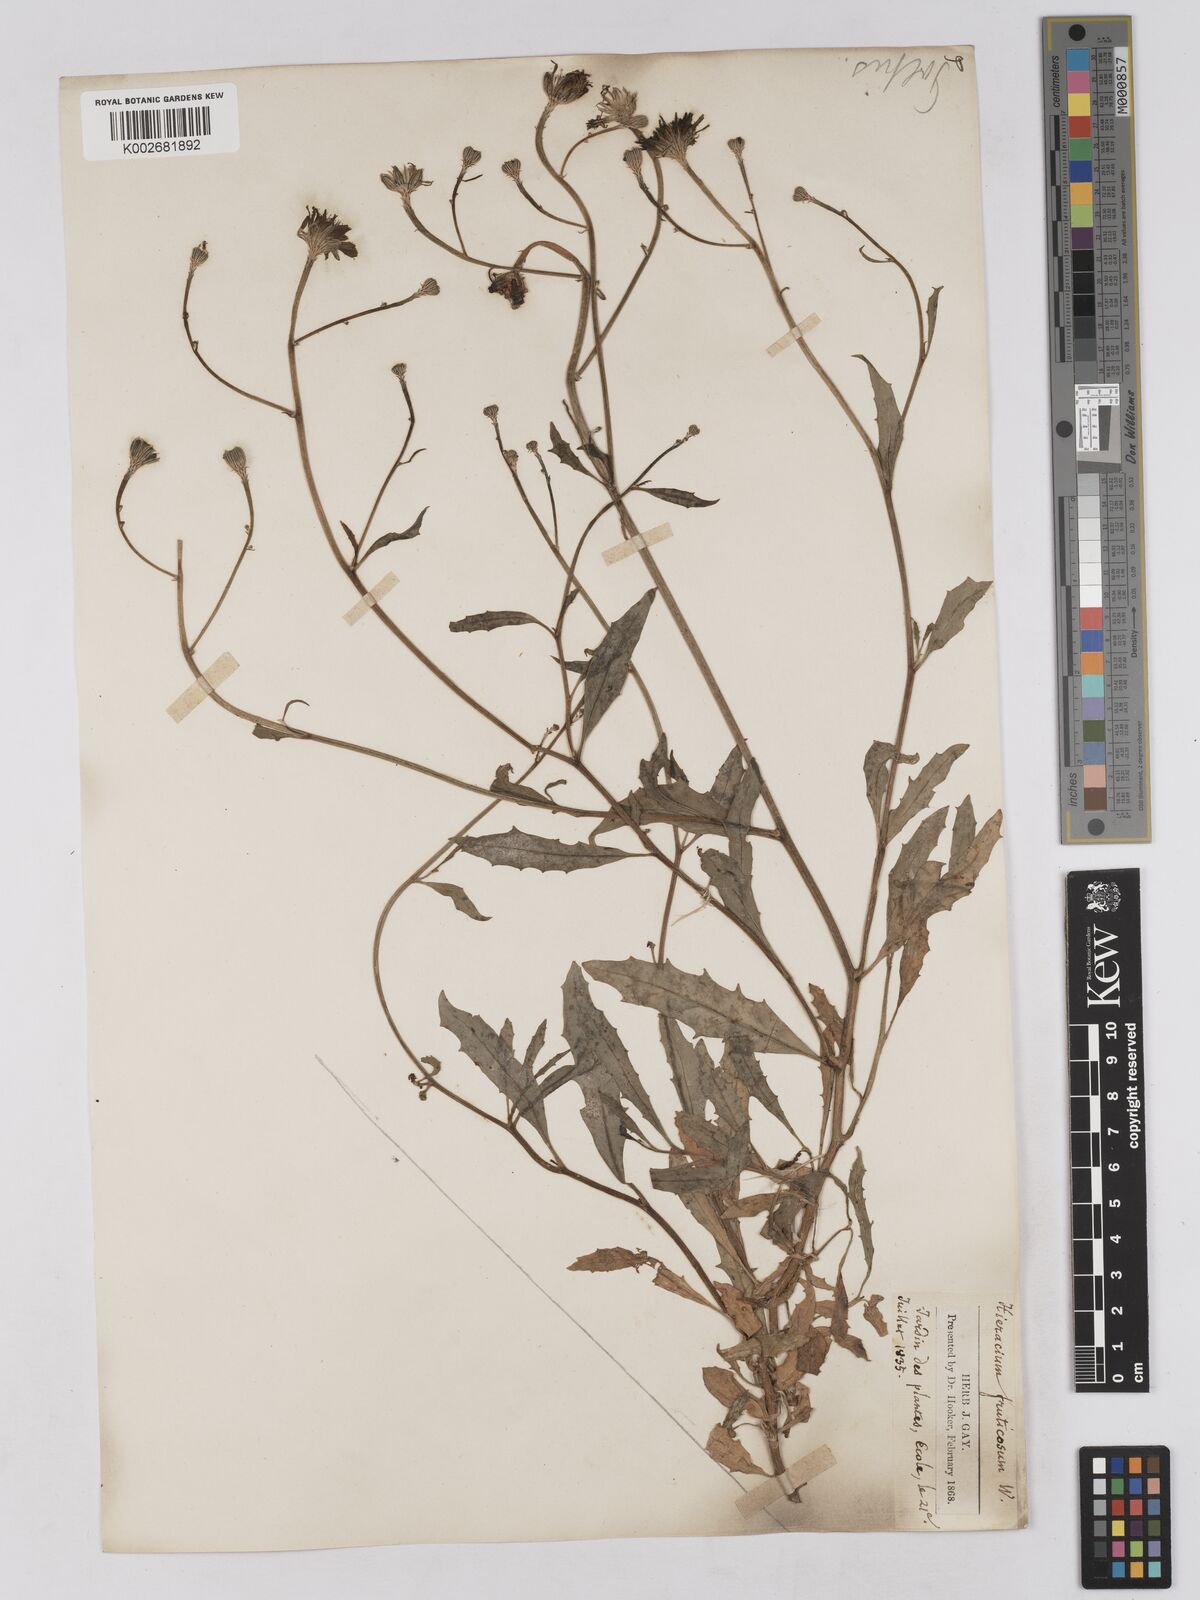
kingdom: Plantae
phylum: Tracheophyta
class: Magnoliopsida
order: Asterales
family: Asteraceae
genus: Tolpis
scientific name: Tolpis succulenta
